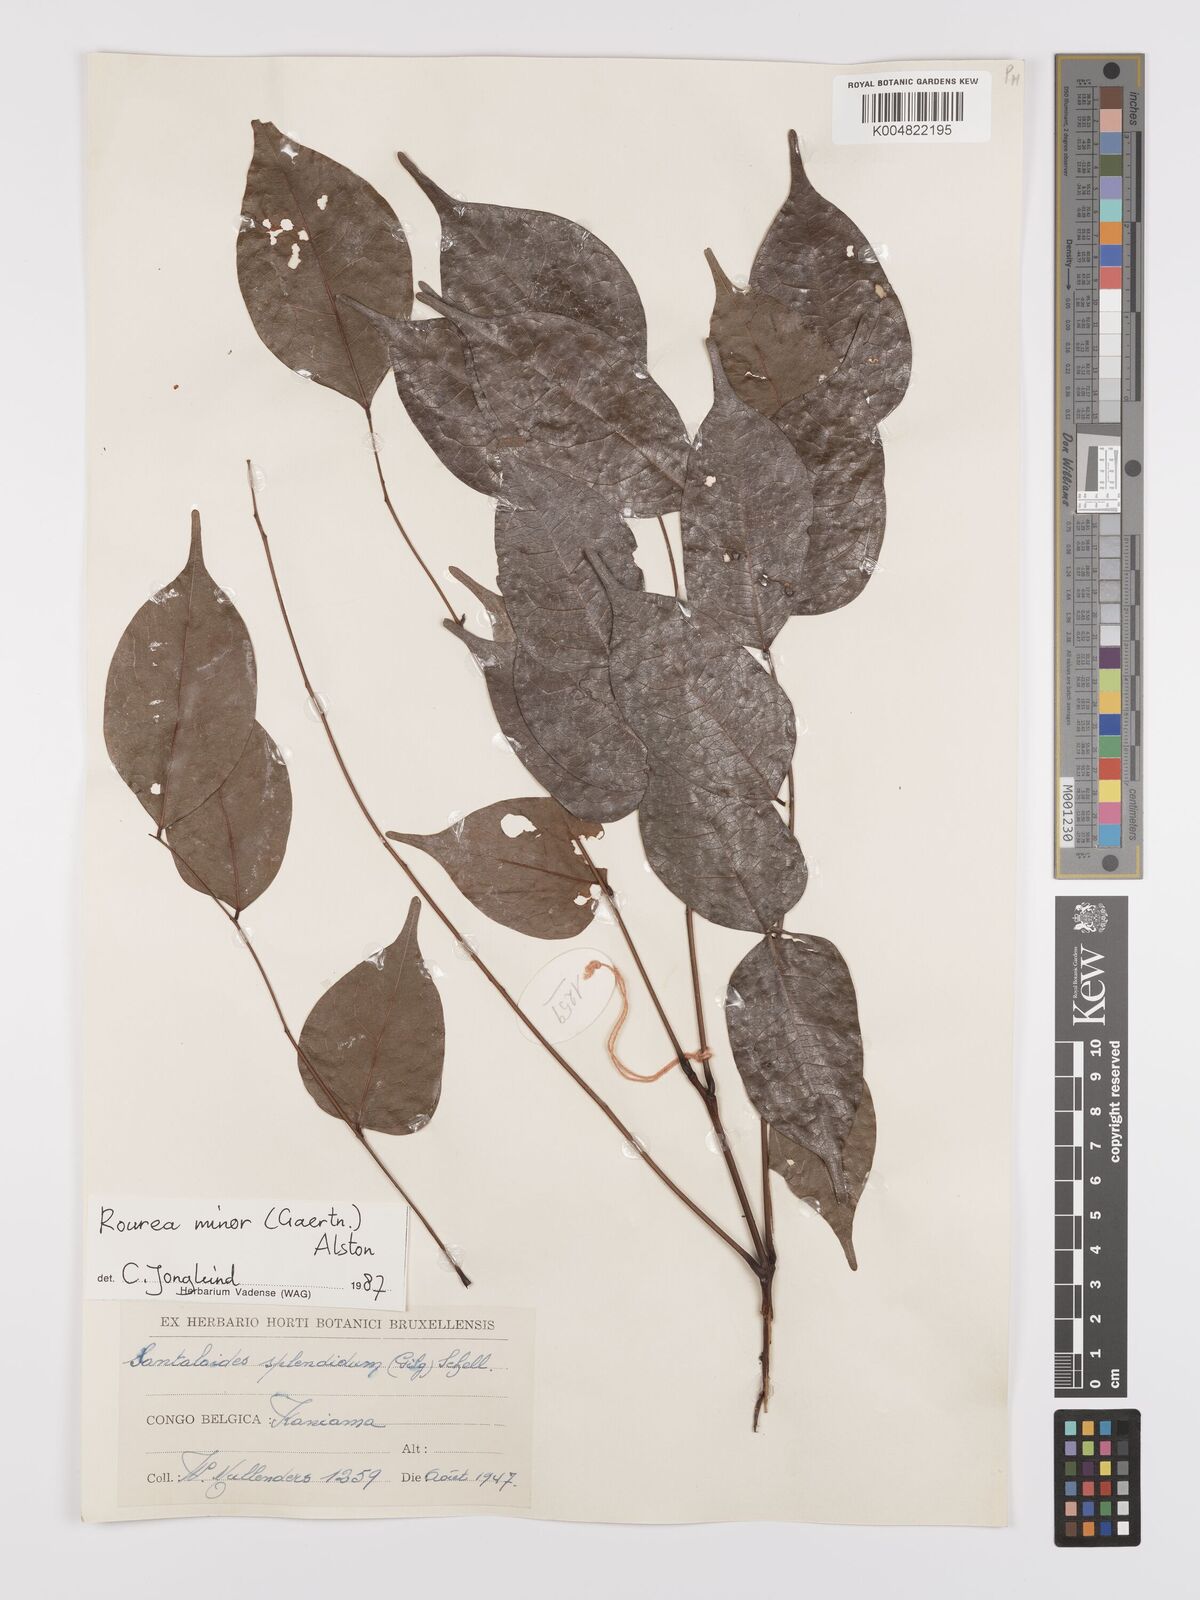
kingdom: Plantae
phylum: Tracheophyta
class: Magnoliopsida
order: Oxalidales
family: Connaraceae
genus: Rourea
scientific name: Rourea minor
